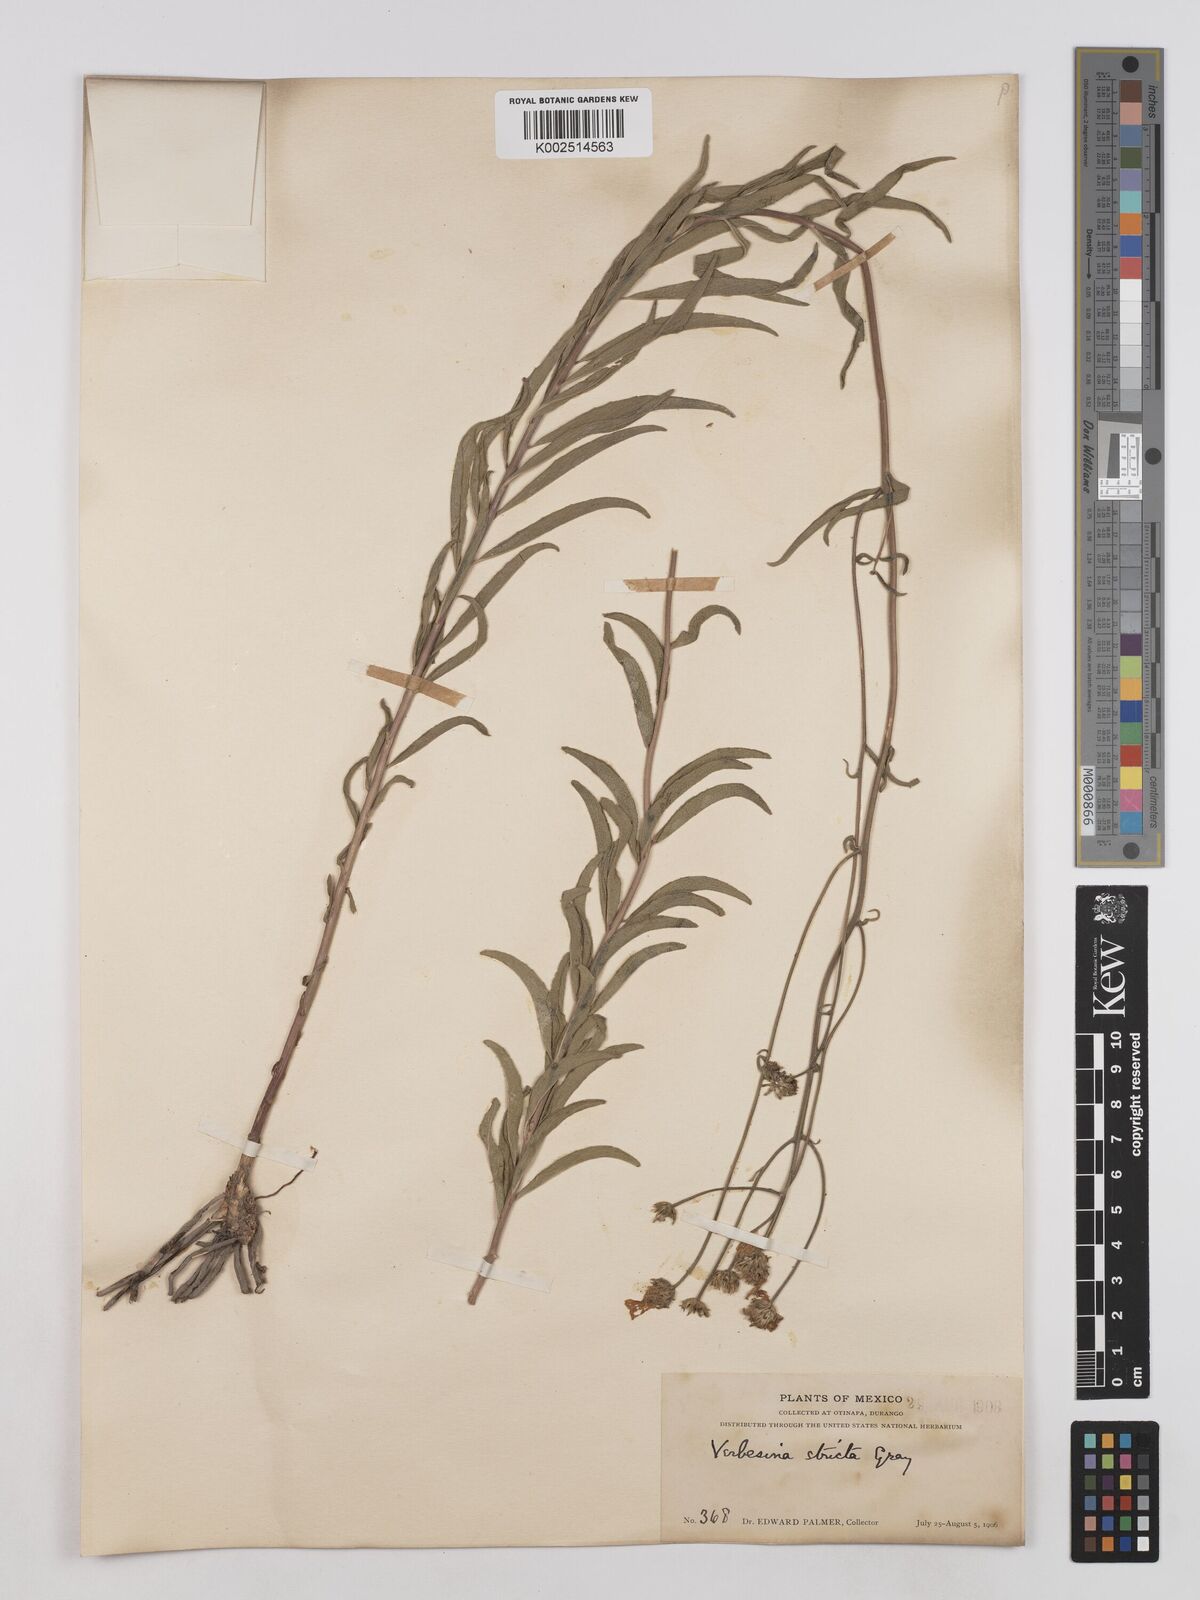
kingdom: Plantae
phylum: Tracheophyta
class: Magnoliopsida
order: Asterales
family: Asteraceae
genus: Verbesina
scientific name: Verbesina parviflora
